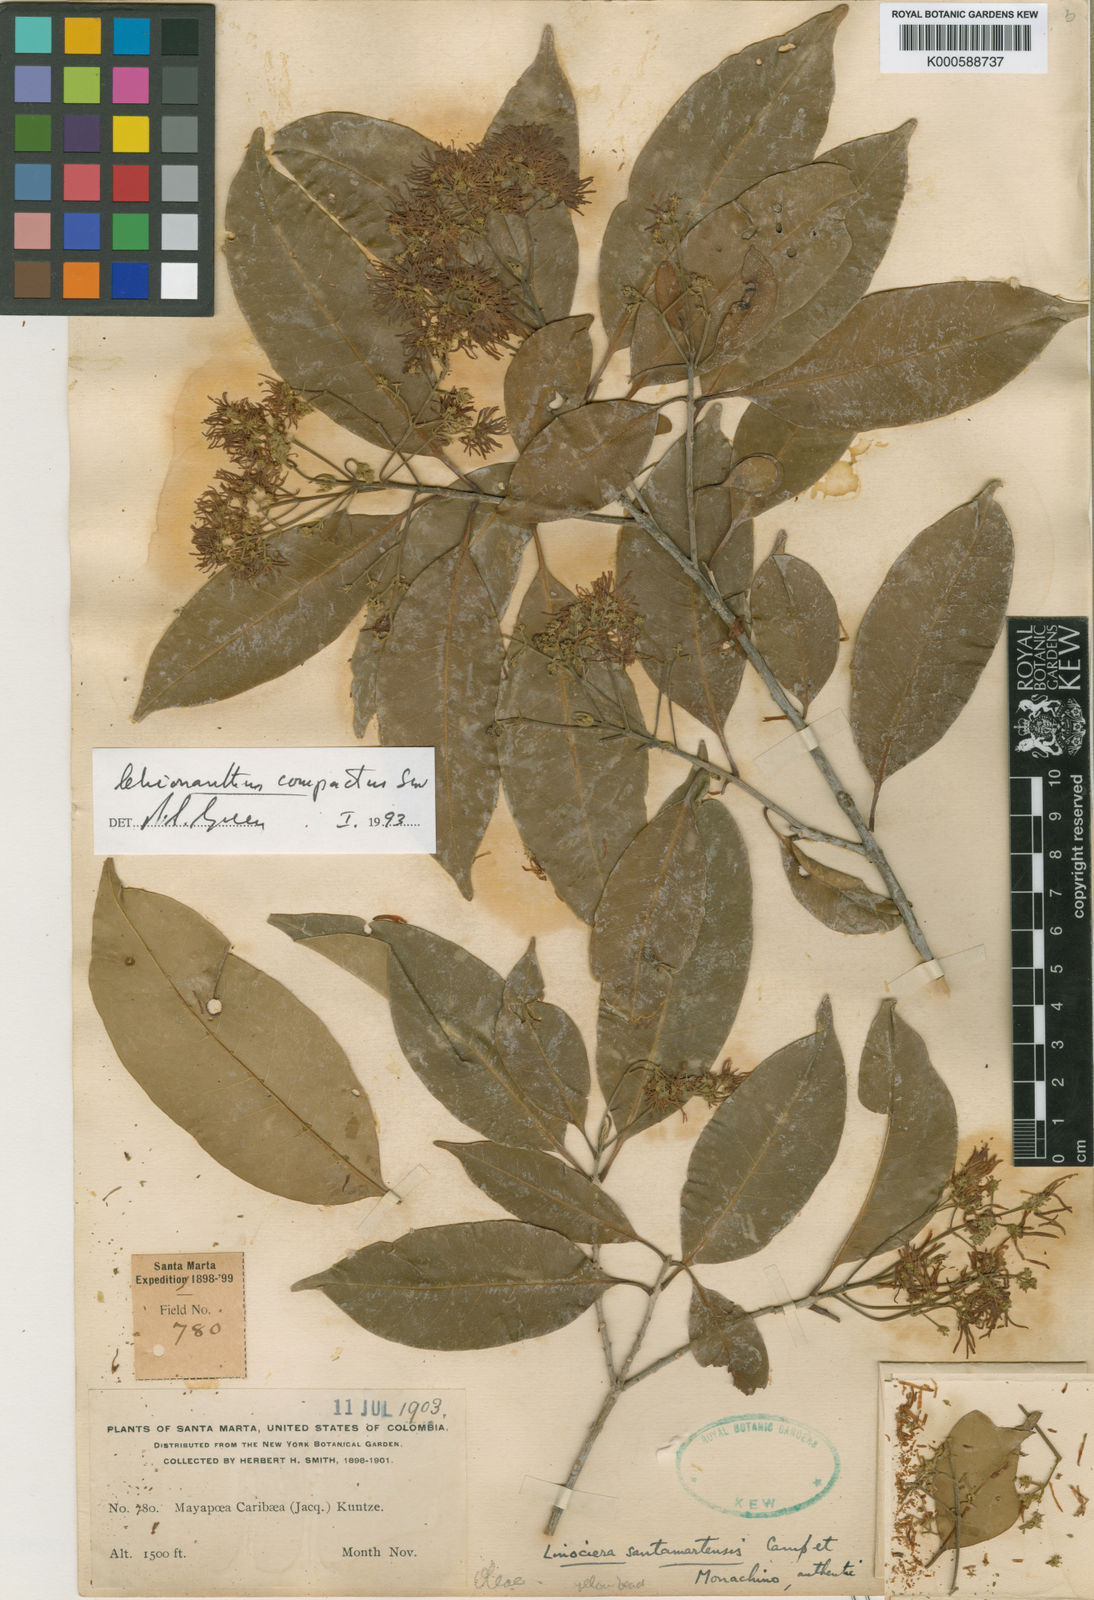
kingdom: Plantae
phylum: Tracheophyta
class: Magnoliopsida
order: Lamiales
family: Oleaceae
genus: Chionanthus
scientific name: Chionanthus compactus
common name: Bridgo tree
